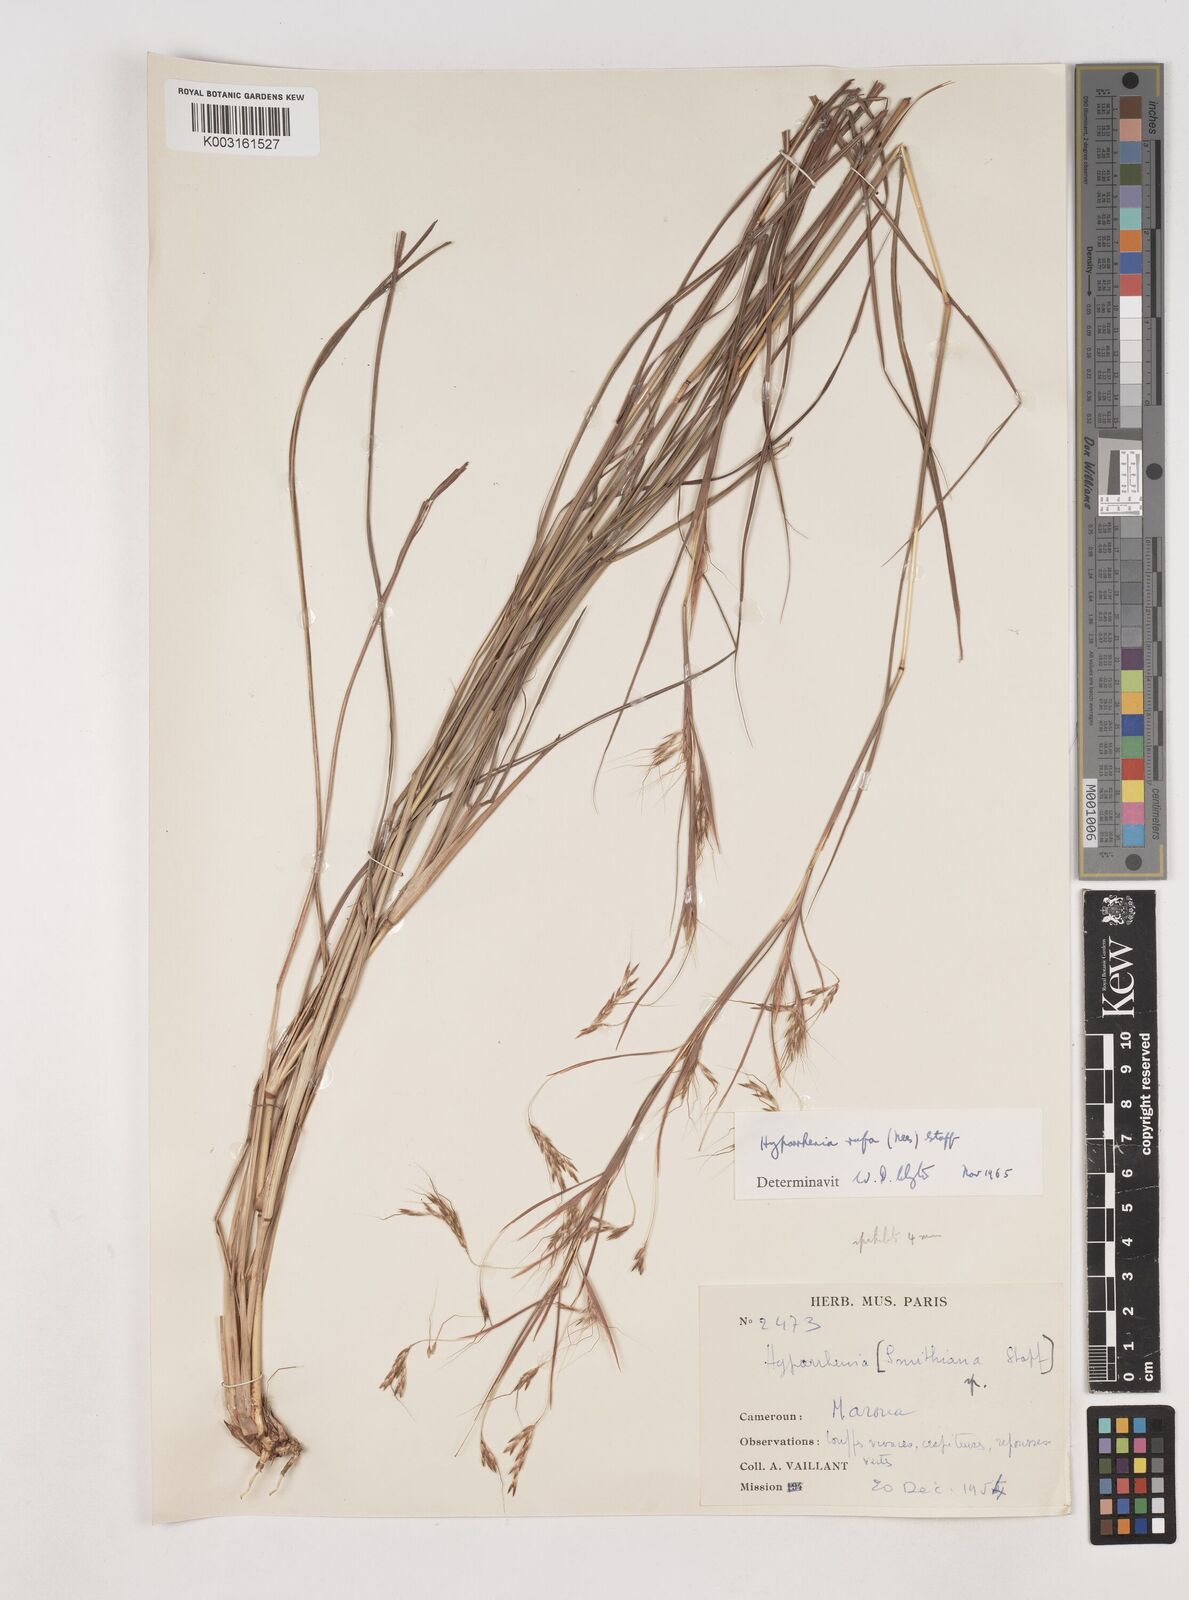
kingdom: Plantae
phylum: Tracheophyta
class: Liliopsida
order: Poales
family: Poaceae
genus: Hyparrhenia
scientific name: Hyparrhenia rufa
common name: Jaraguagrass
